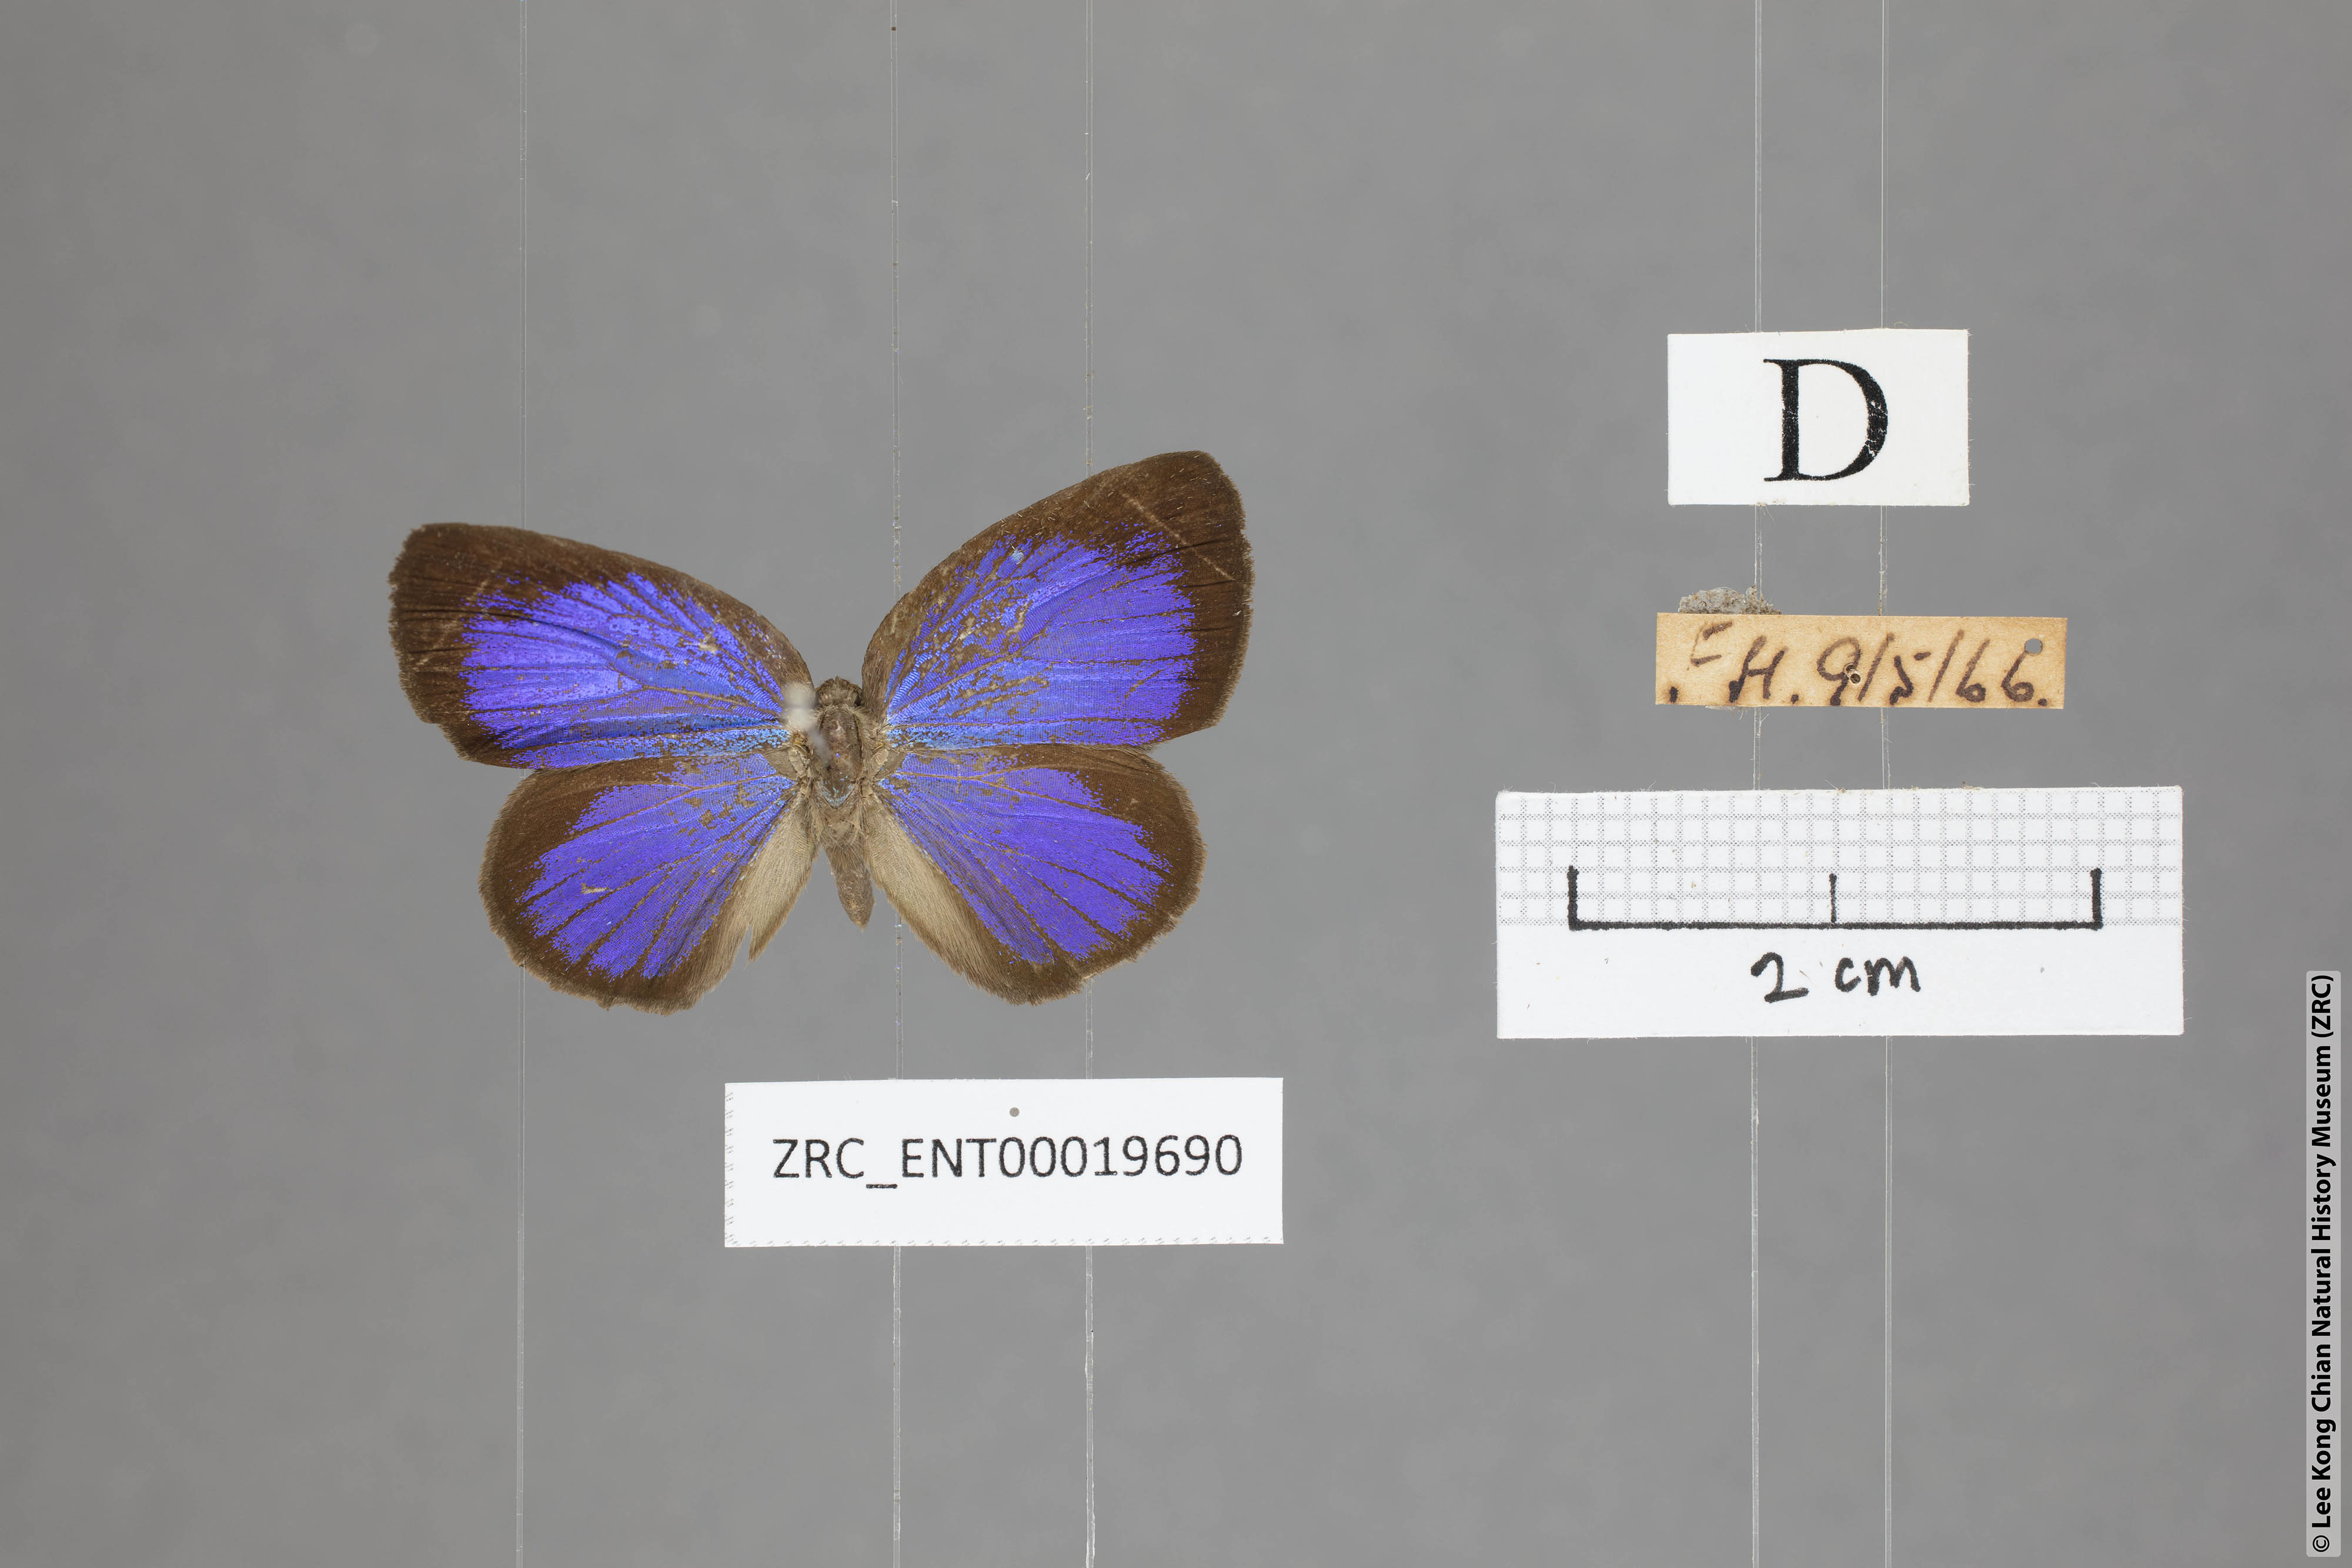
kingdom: Animalia
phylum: Arthropoda
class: Insecta
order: Lepidoptera
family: Lycaenidae
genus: Arhopala
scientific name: Arhopala moorei
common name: Moore's oakblue
